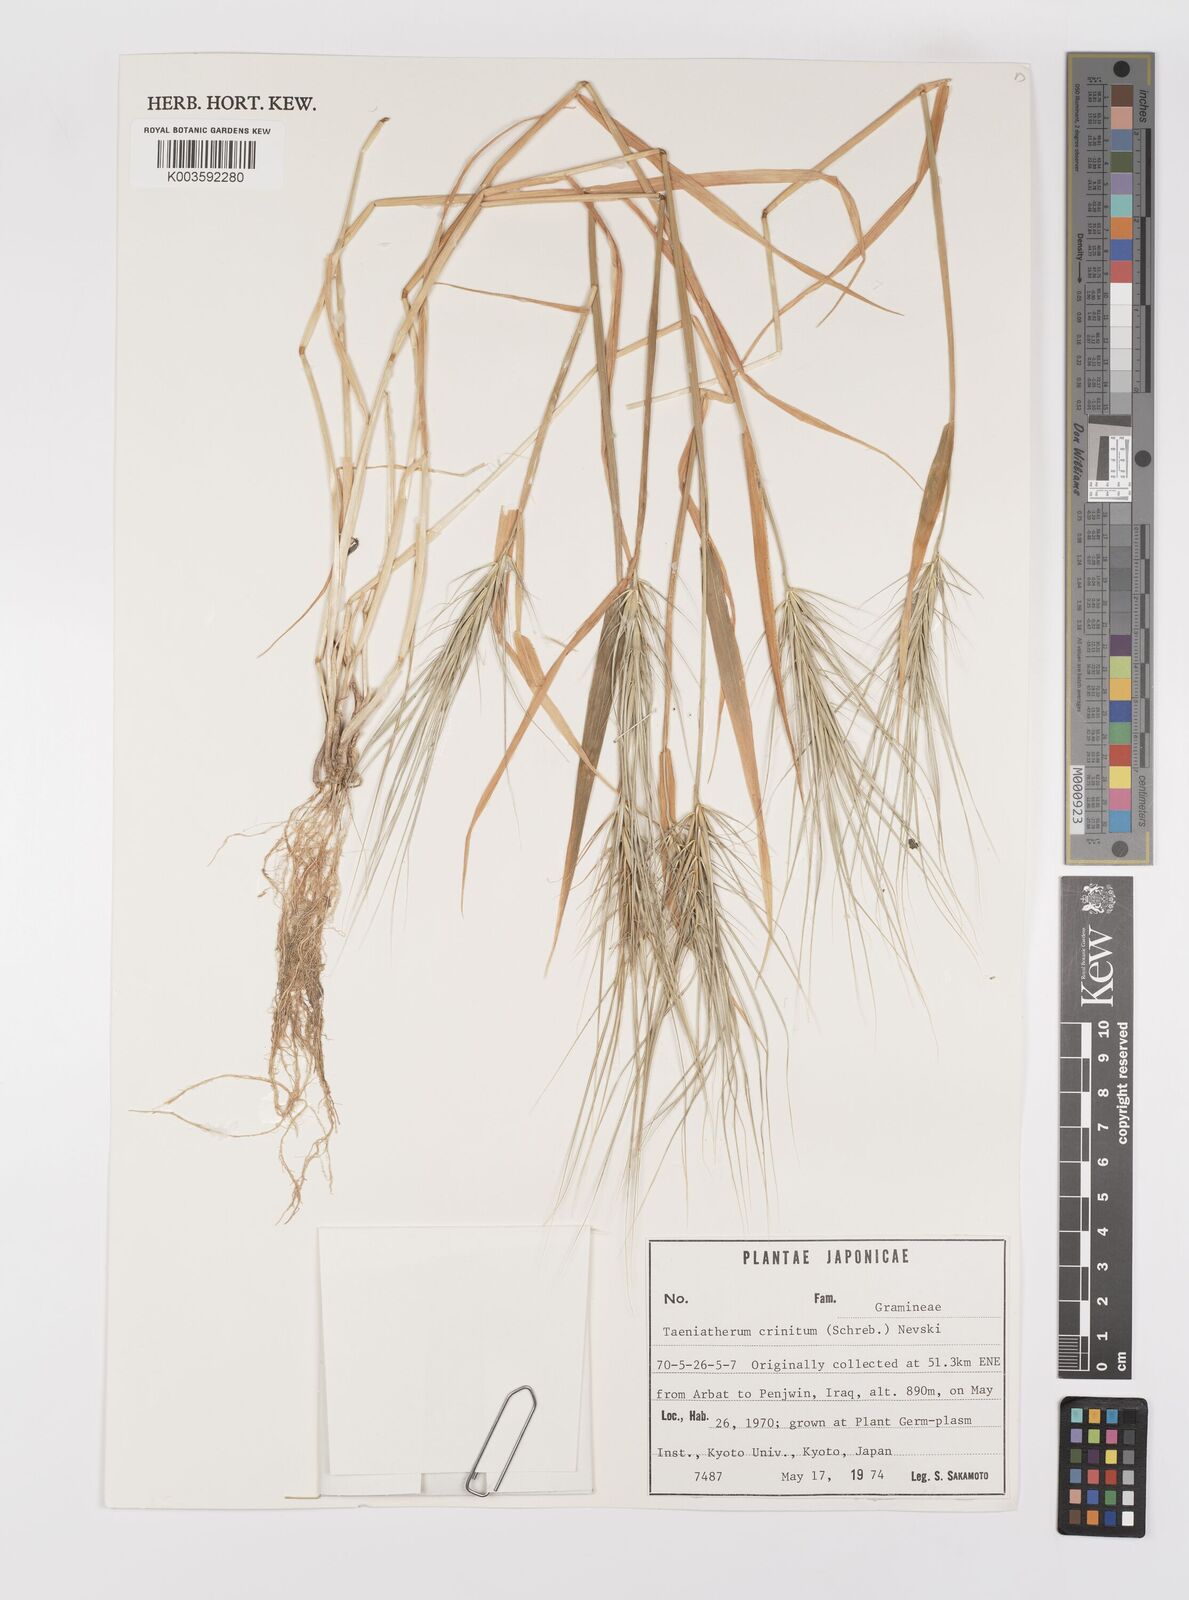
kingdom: Plantae
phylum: Tracheophyta
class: Liliopsida
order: Poales
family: Poaceae
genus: Taeniatherum
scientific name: Taeniatherum caput-medusae
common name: Medusahead
